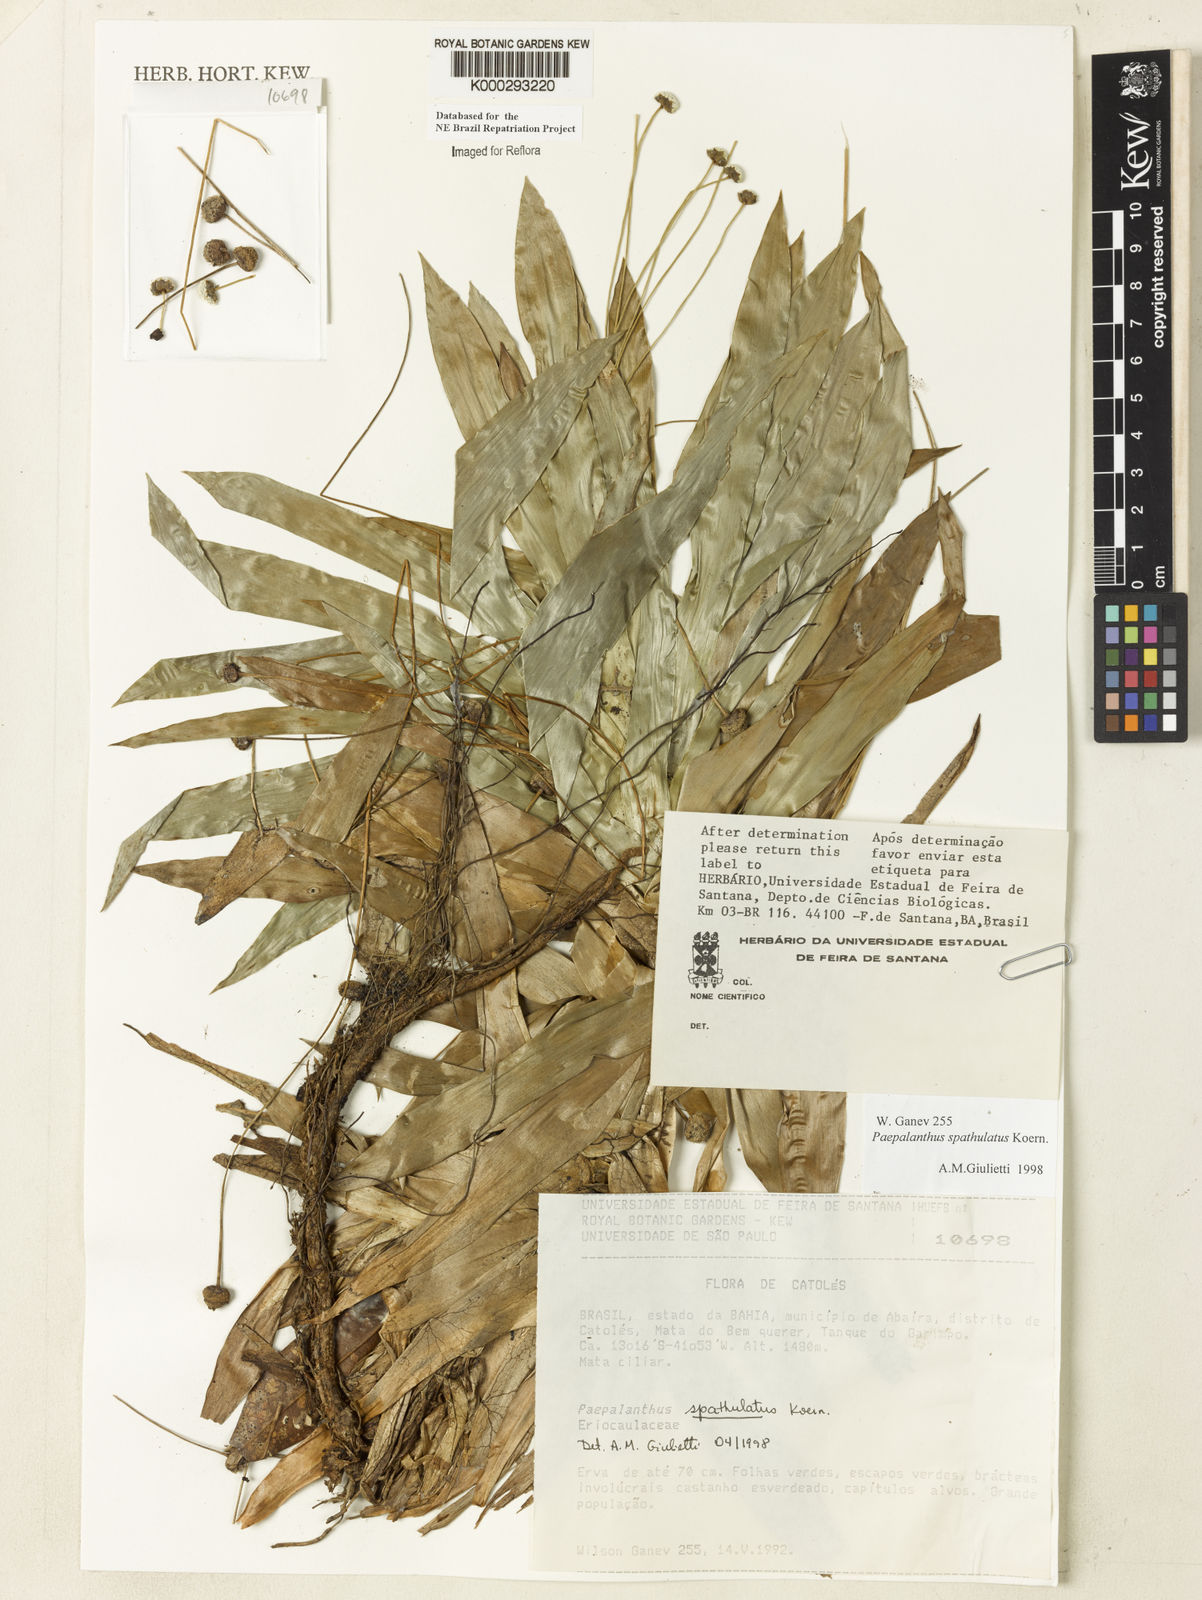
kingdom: Plantae
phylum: Tracheophyta
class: Liliopsida
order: Poales
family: Eriocaulaceae
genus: Paepalanthus
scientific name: Paepalanthus
